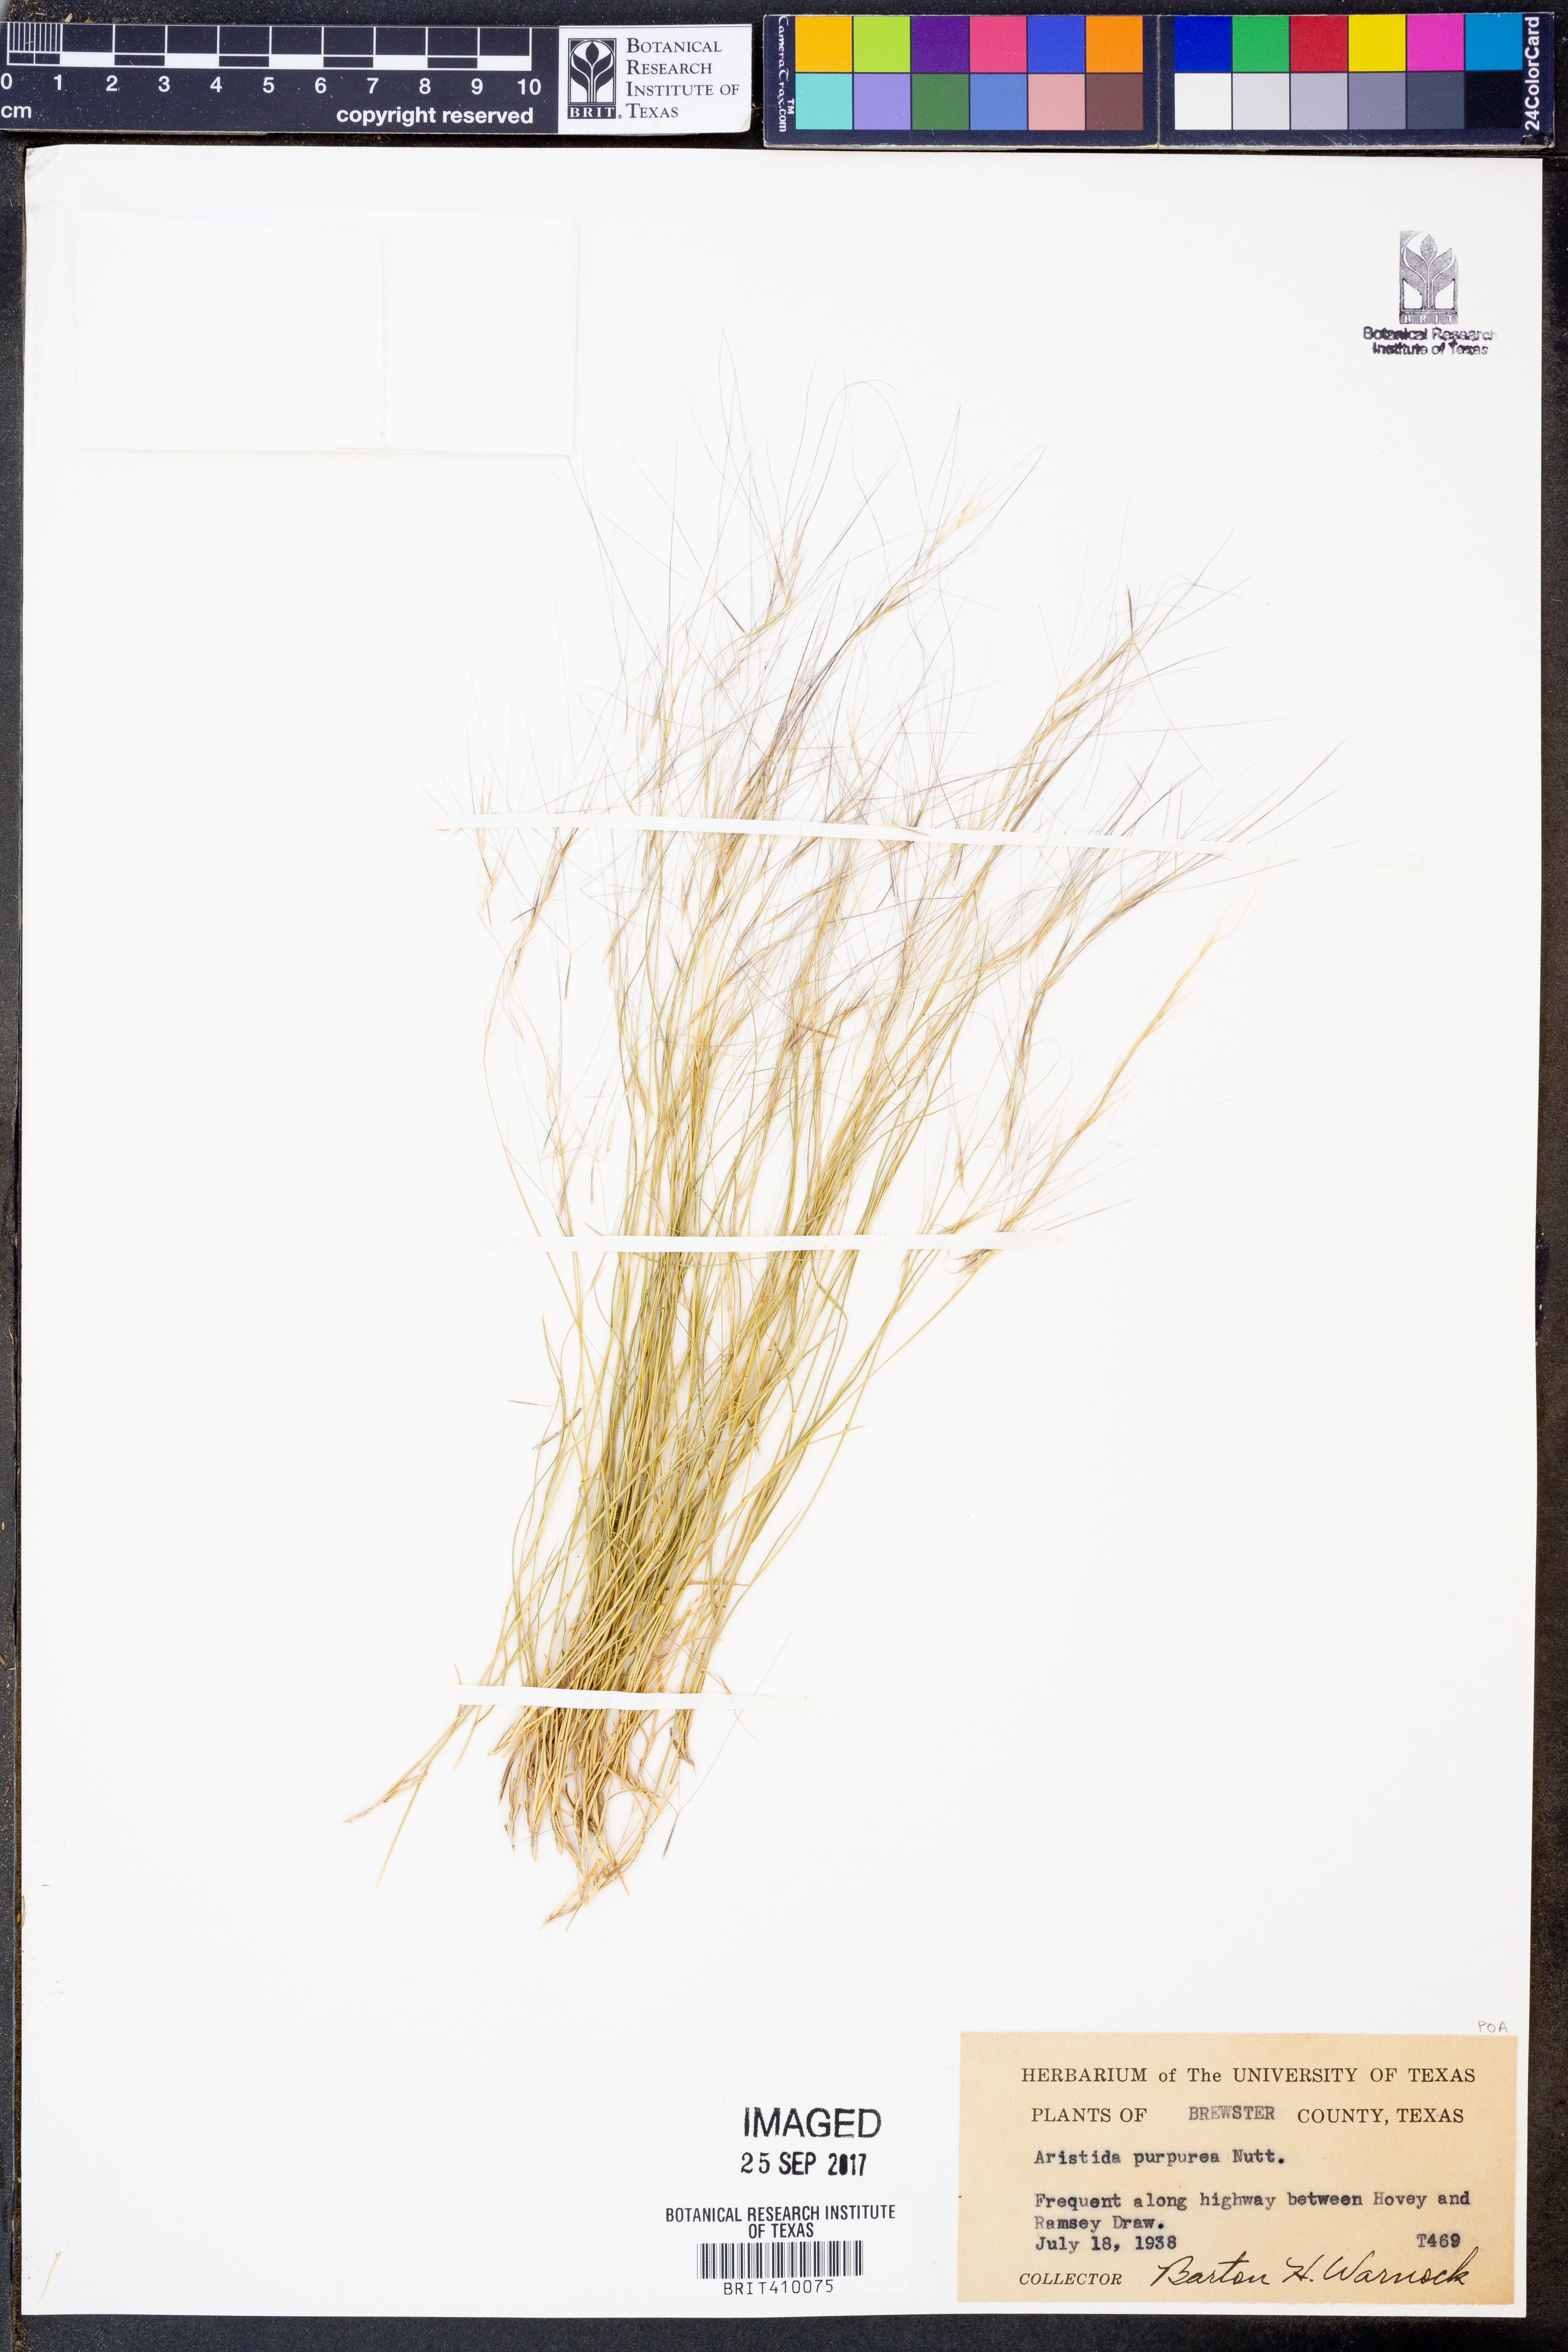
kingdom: Plantae
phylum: Tracheophyta
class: Liliopsida
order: Poales
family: Poaceae
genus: Aristida
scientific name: Aristida purpurea
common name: Purple threeawn
